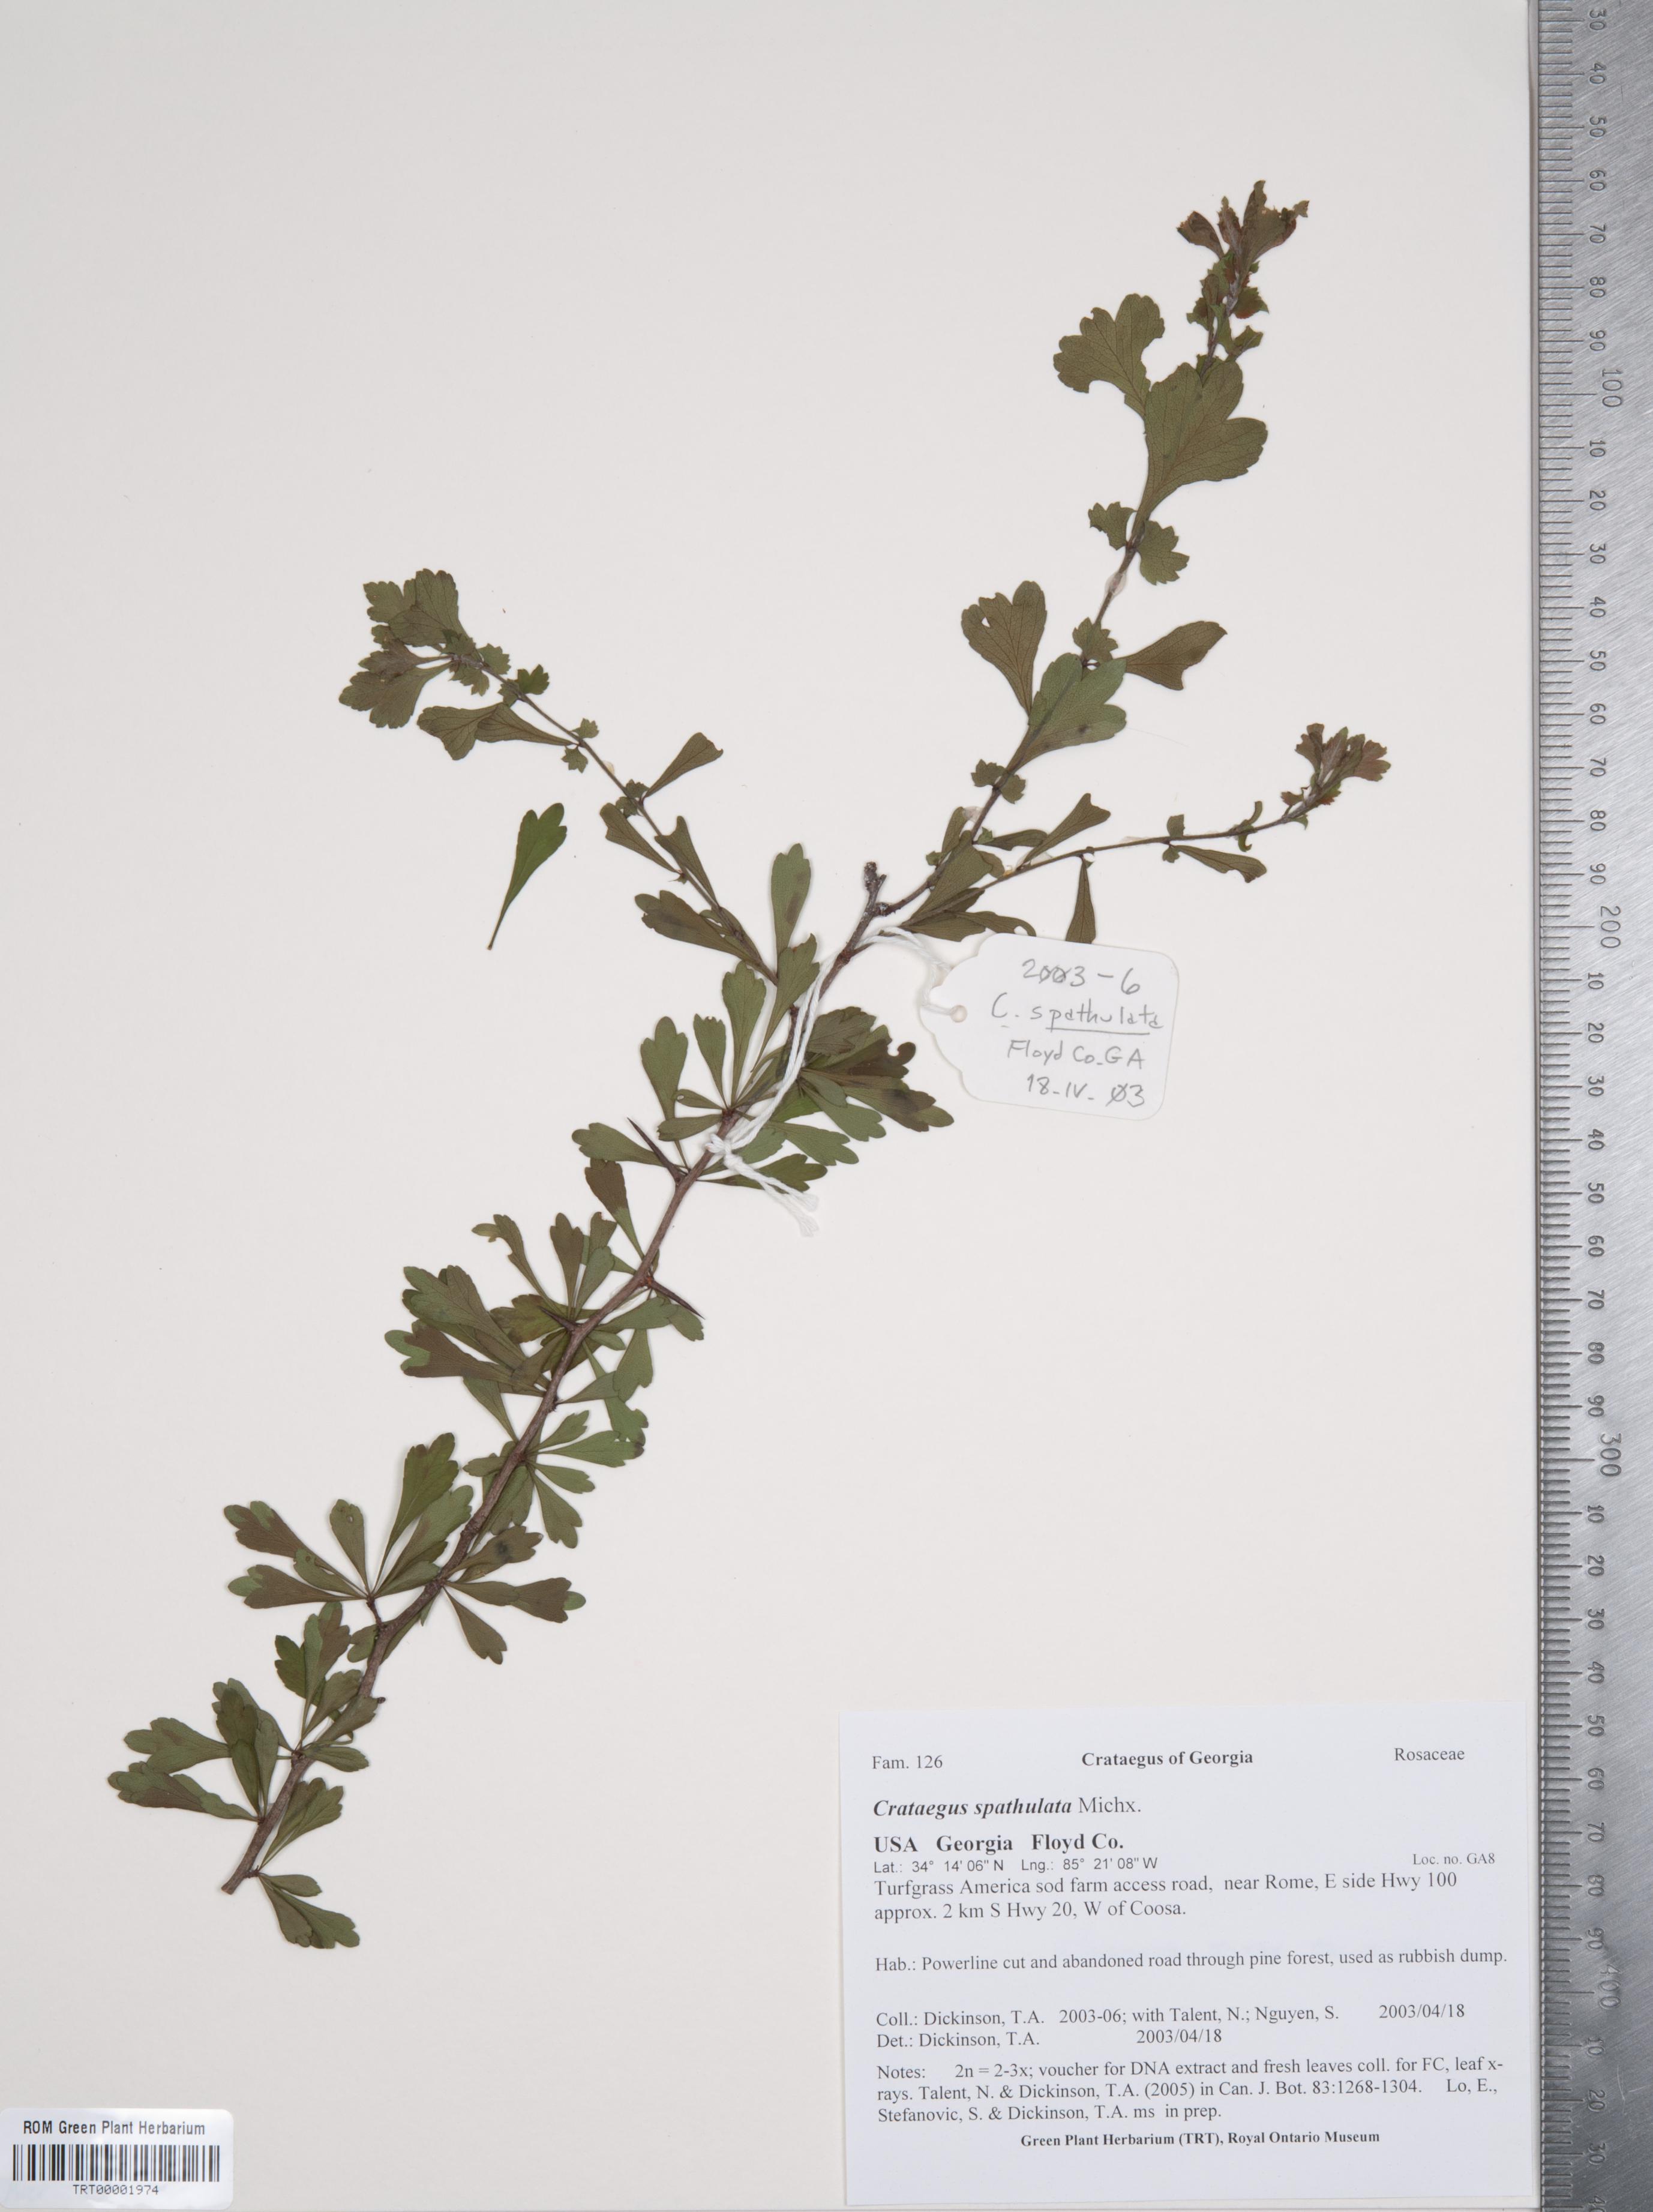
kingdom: Plantae
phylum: Tracheophyta
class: Magnoliopsida
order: Rosales
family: Rosaceae
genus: Crataegus
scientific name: Crataegus spathulata
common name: Littlehip hawthorn
